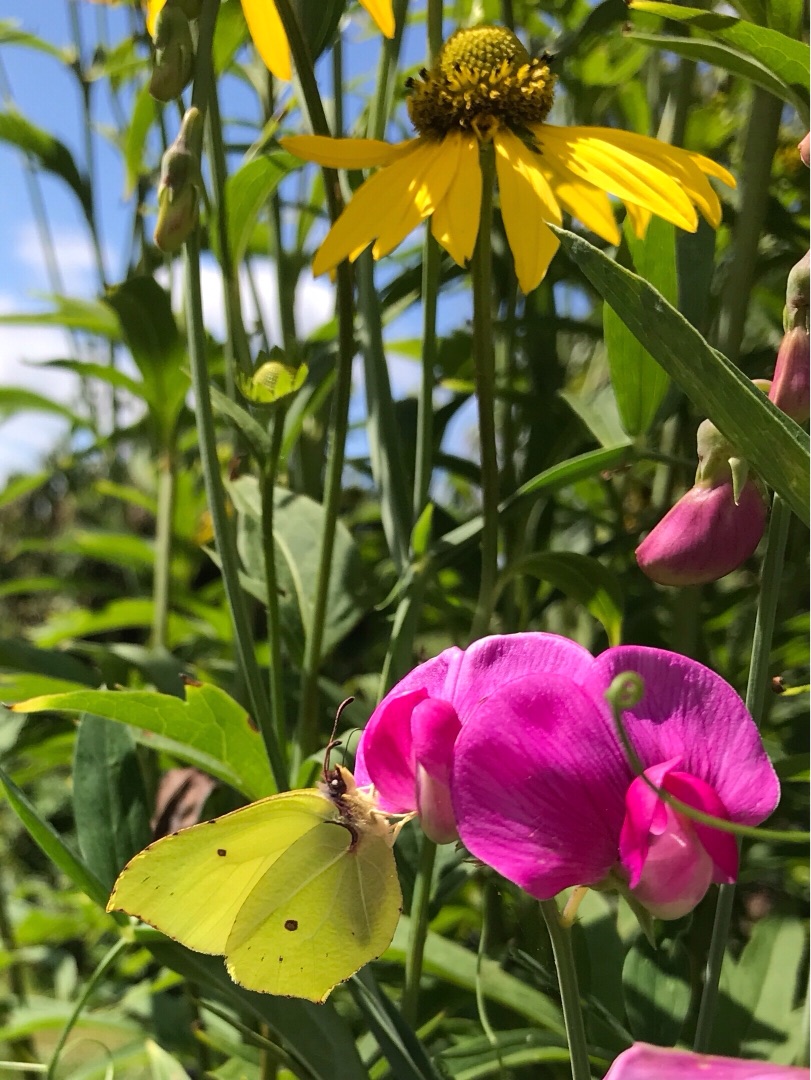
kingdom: Animalia
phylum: Arthropoda
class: Insecta
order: Lepidoptera
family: Pieridae
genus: Gonepteryx
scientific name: Gonepteryx rhamni
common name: Citronsommerfugl
